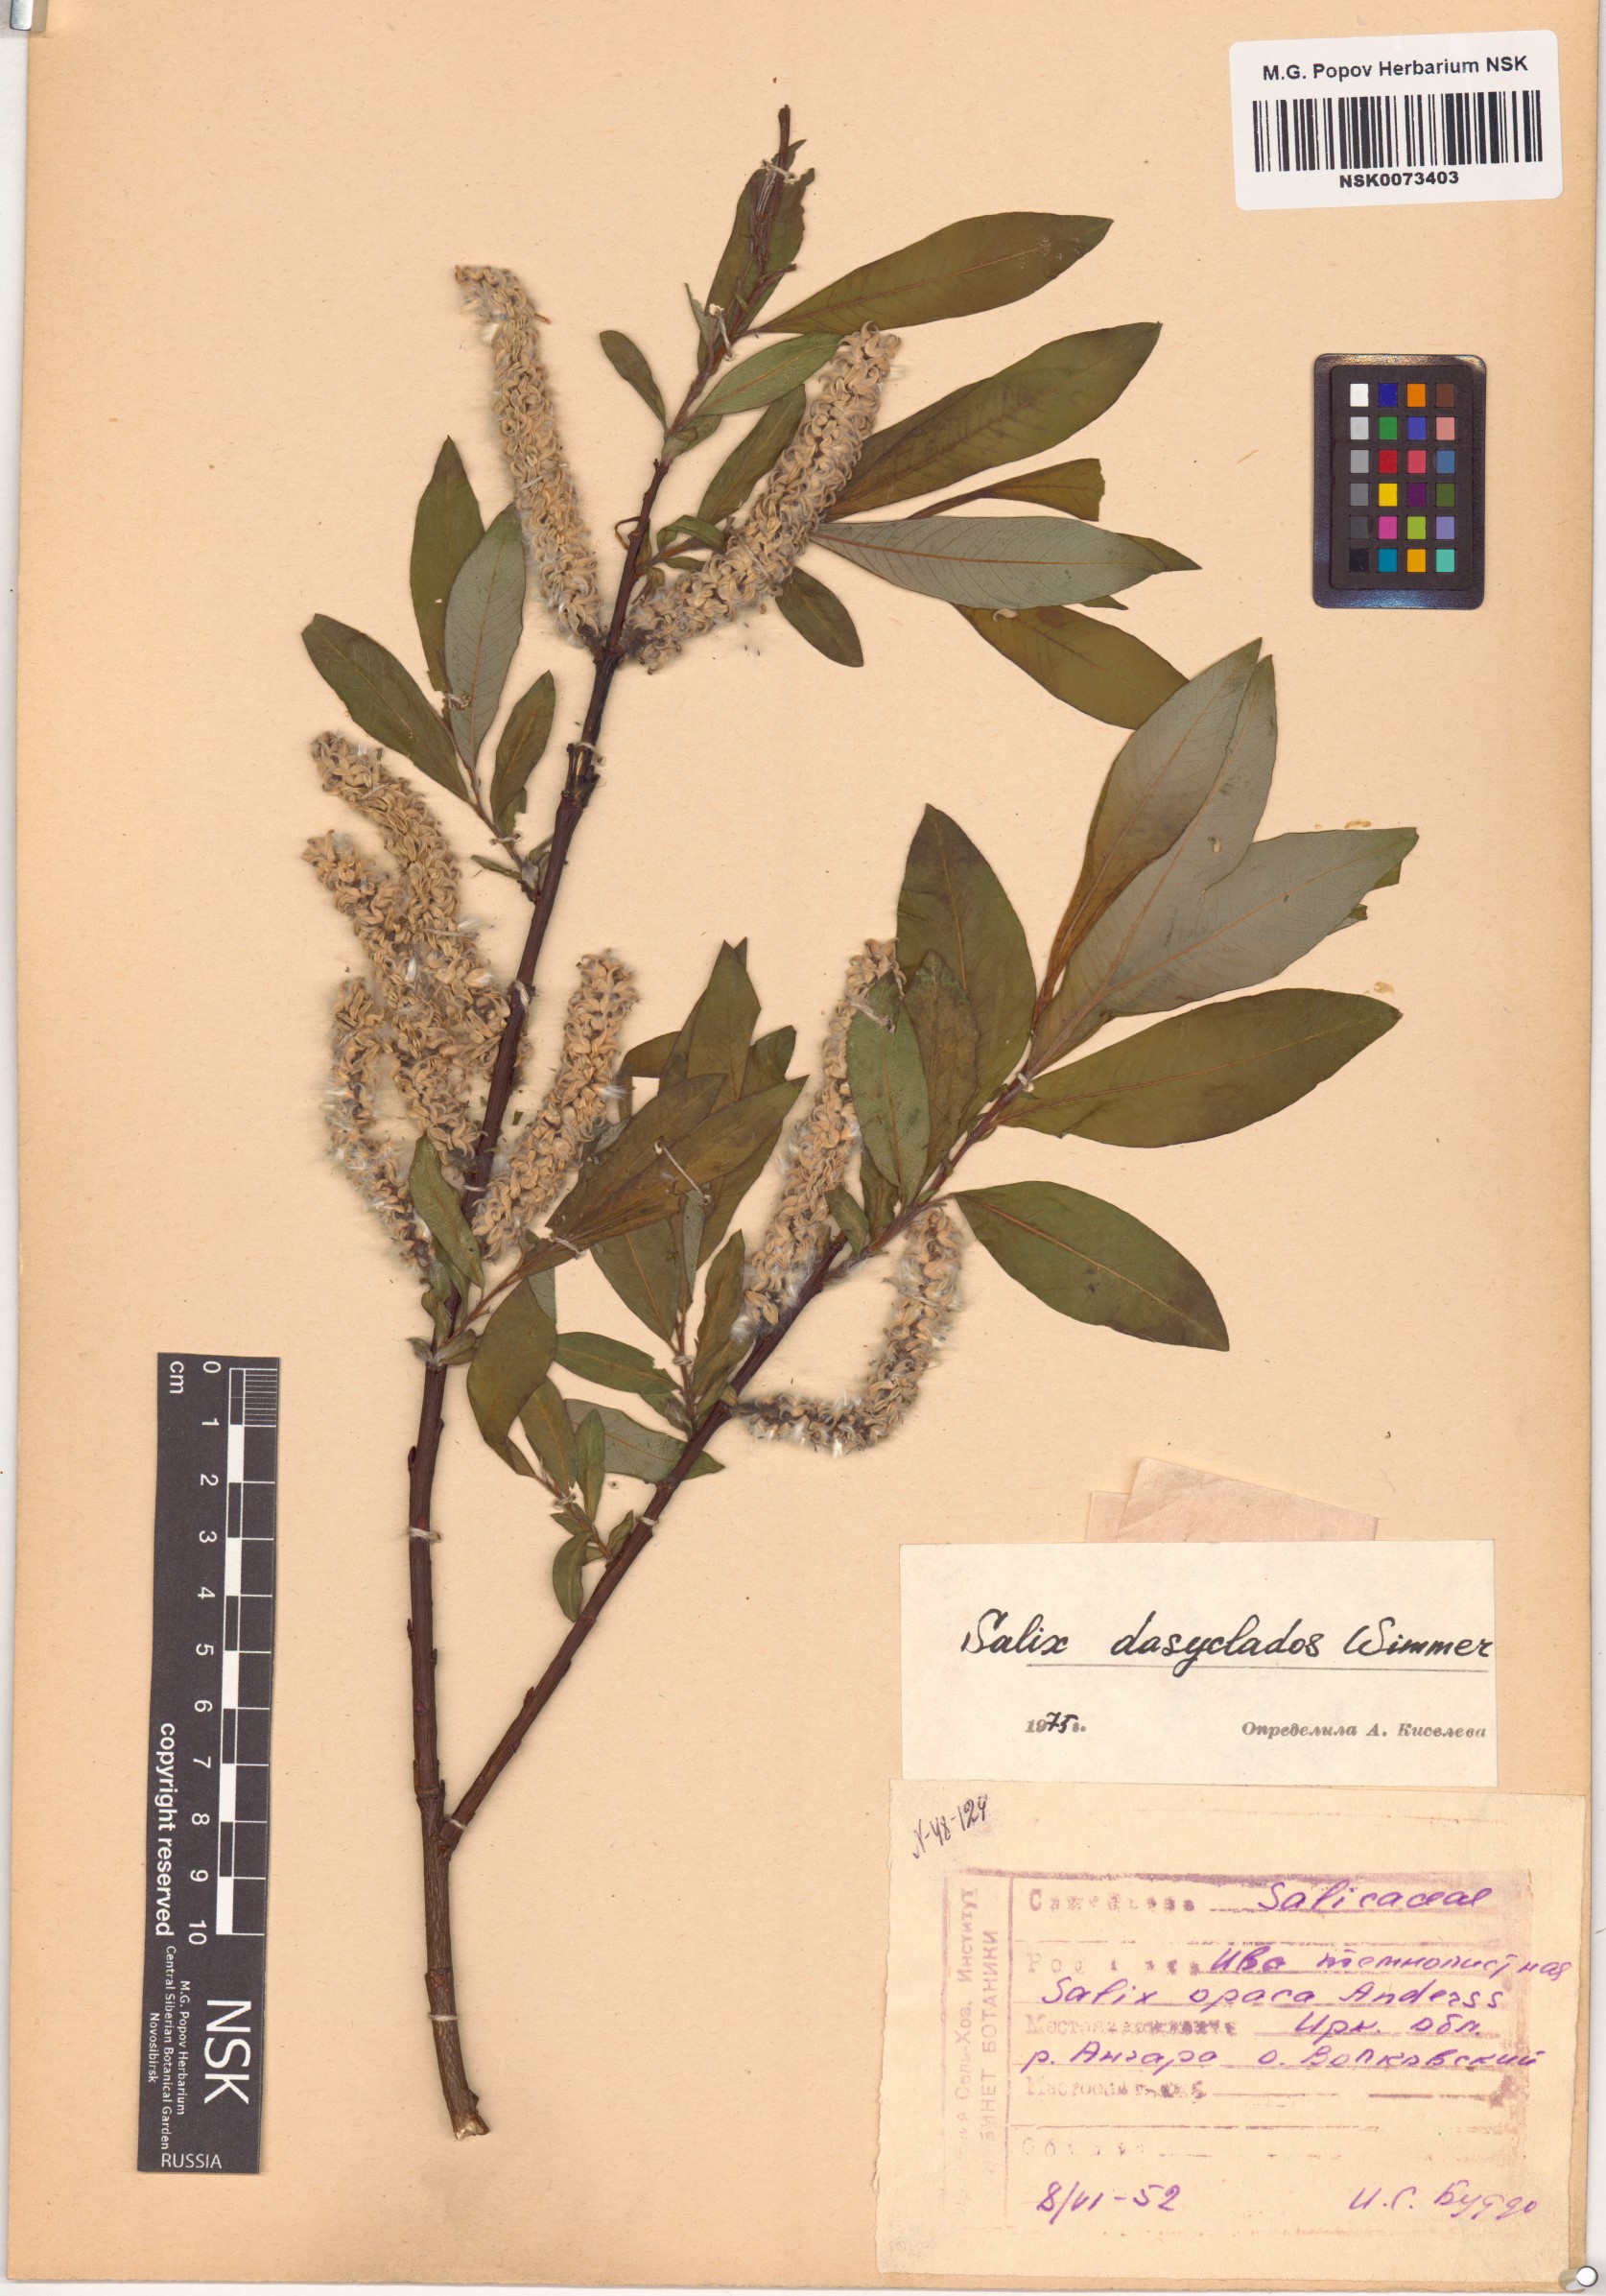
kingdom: Plantae
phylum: Tracheophyta
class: Magnoliopsida
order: Malpighiales
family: Salicaceae
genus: Salix
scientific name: Salix gmelinii
